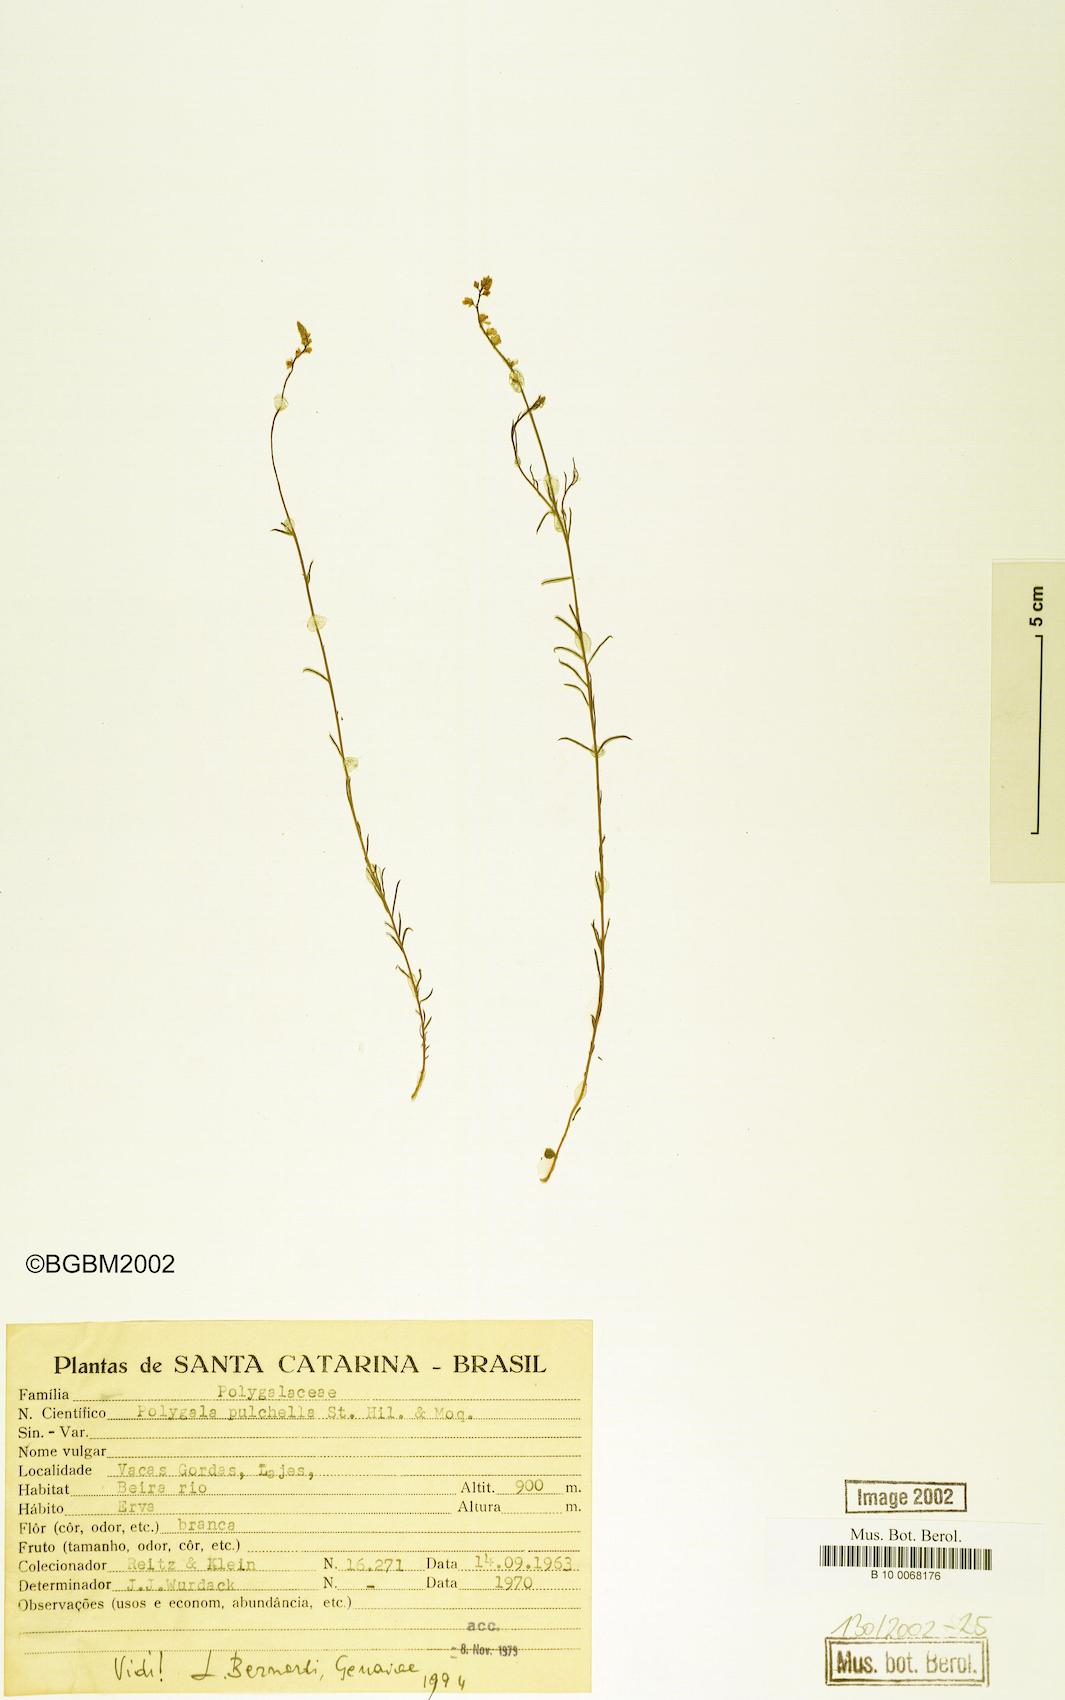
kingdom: Plantae
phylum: Tracheophyta
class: Magnoliopsida
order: Fabales
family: Polygalaceae
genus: Polygala
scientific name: Polygala pulchella
